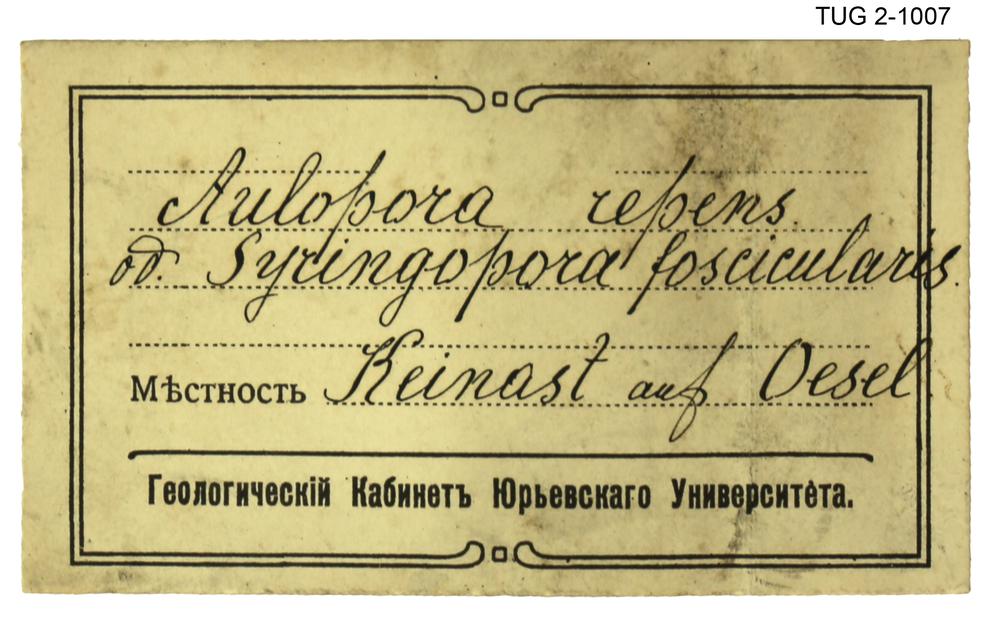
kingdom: Animalia
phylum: Cnidaria
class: Hydrozoa
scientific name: Hydrozoa
